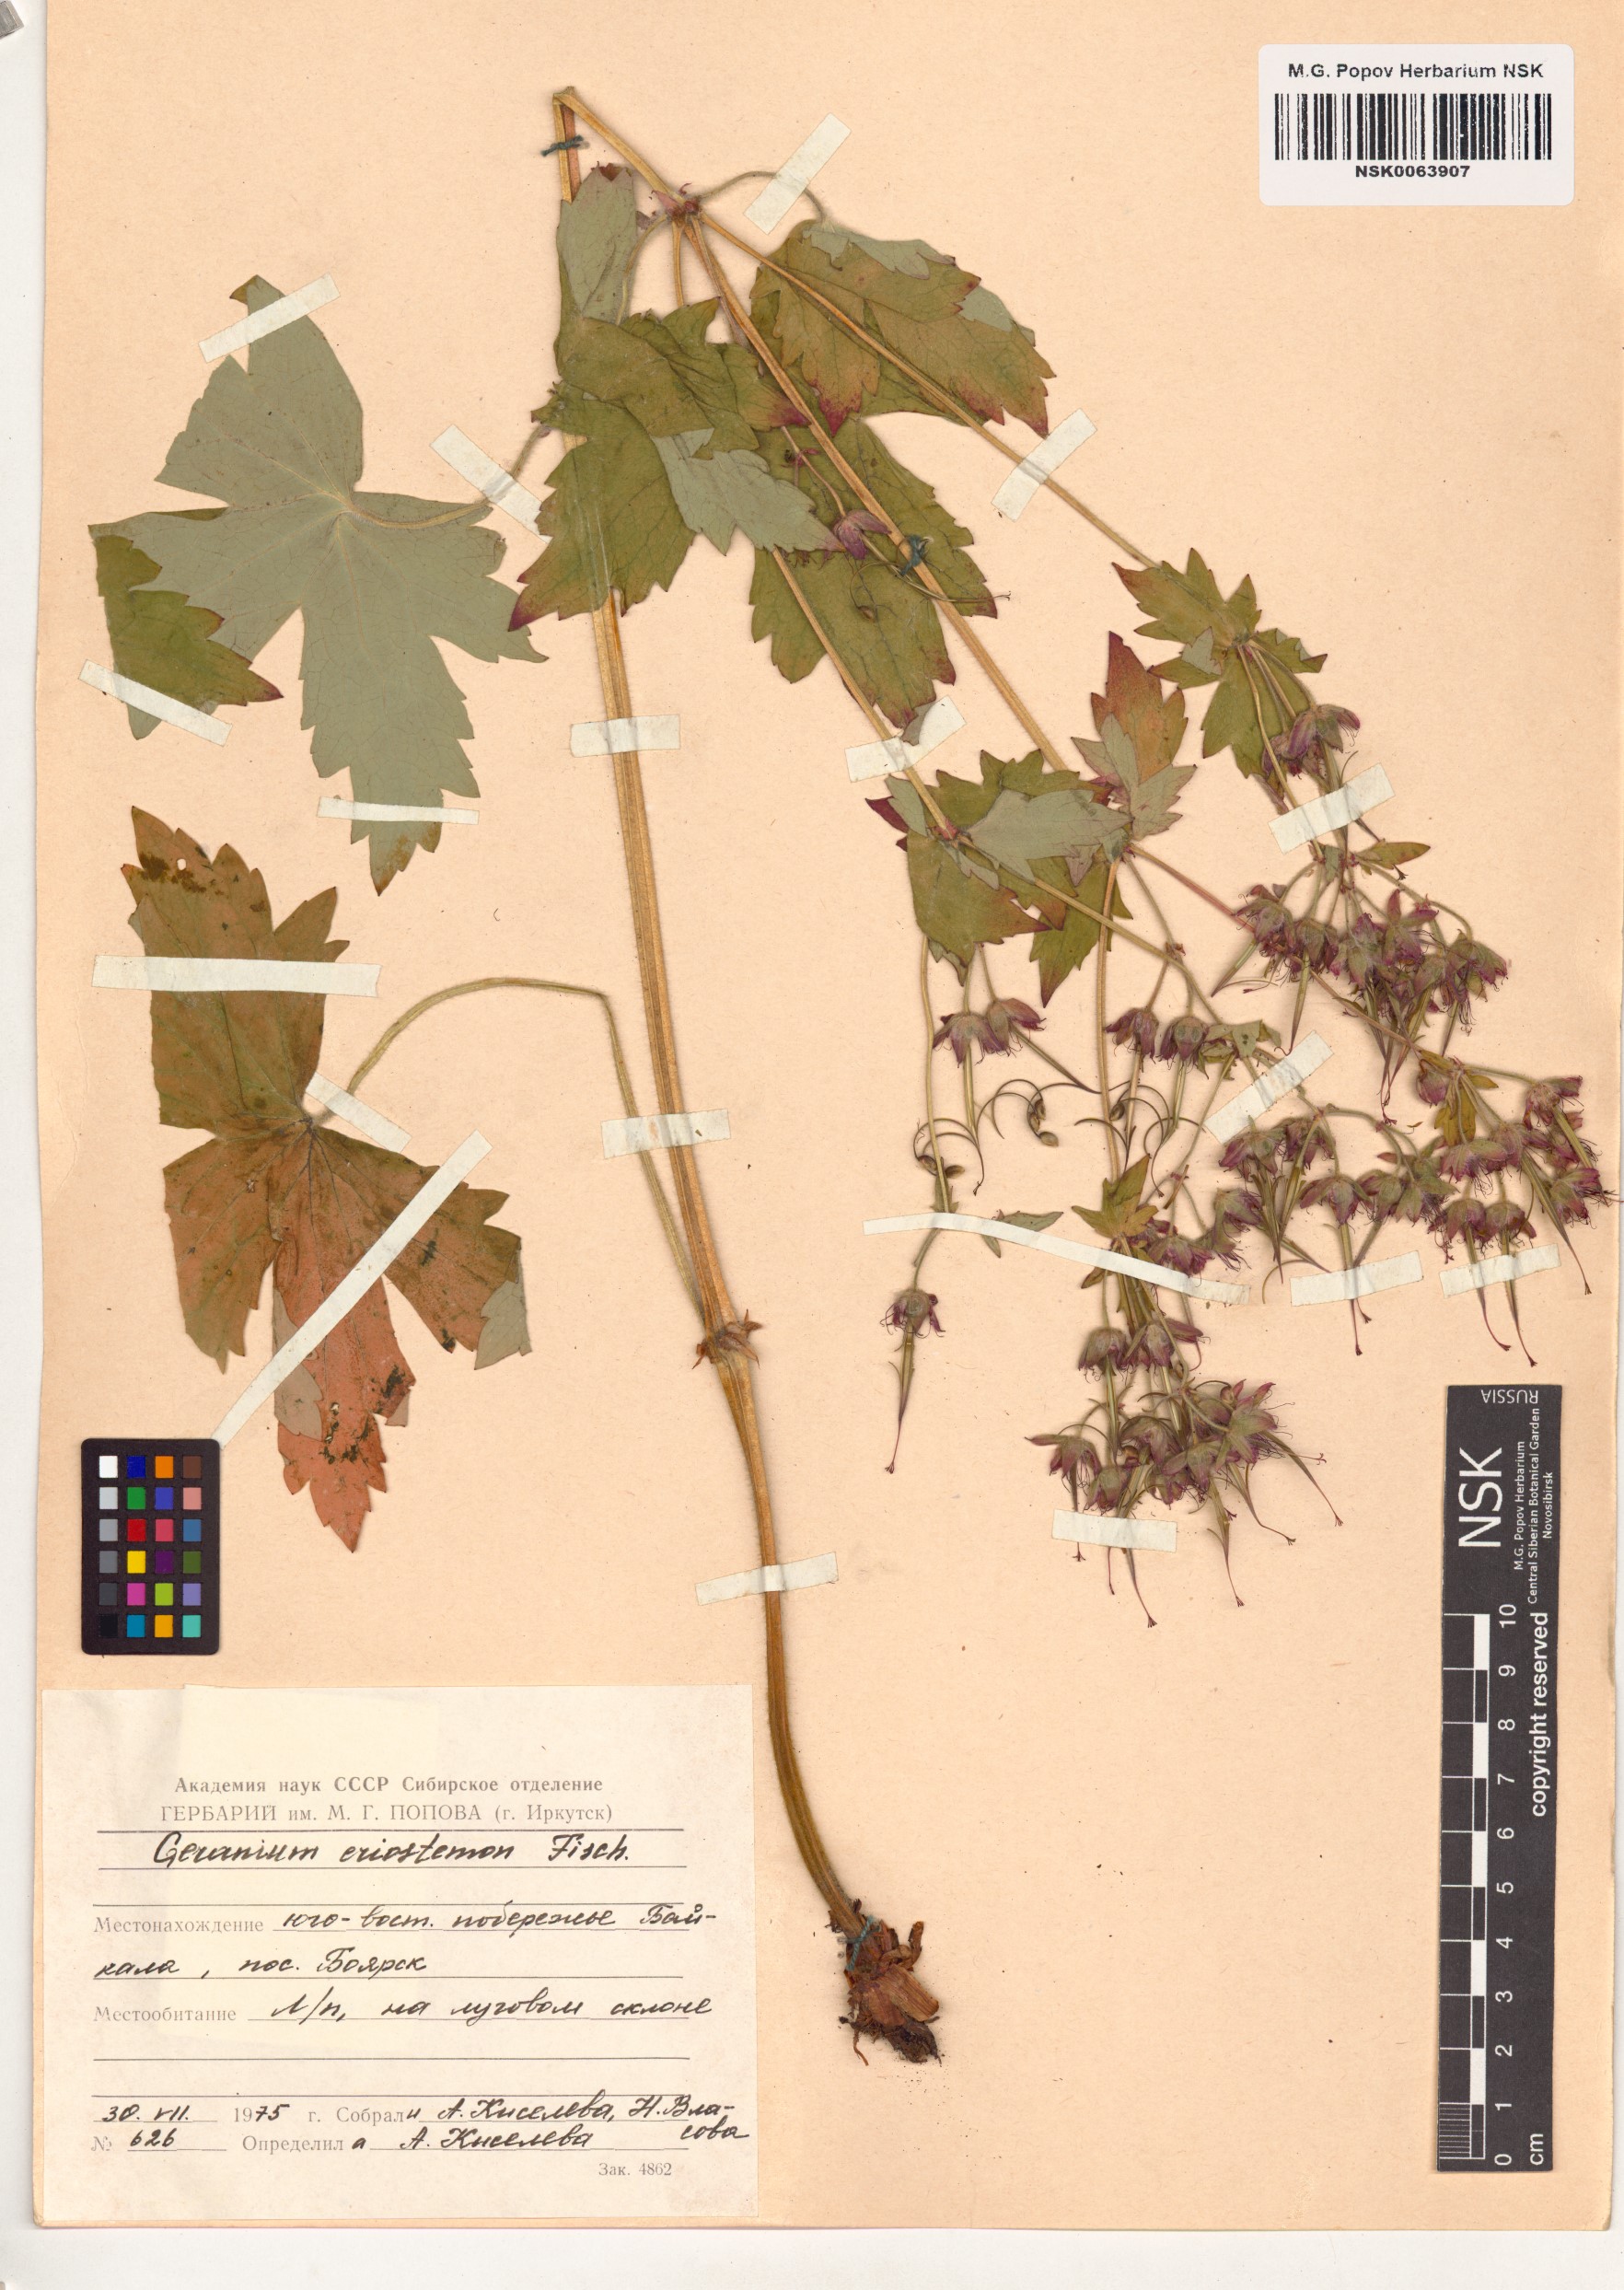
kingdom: Plantae
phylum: Tracheophyta
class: Magnoliopsida
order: Geraniales
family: Geraniaceae
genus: Geranium
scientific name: Geranium platyanthum
